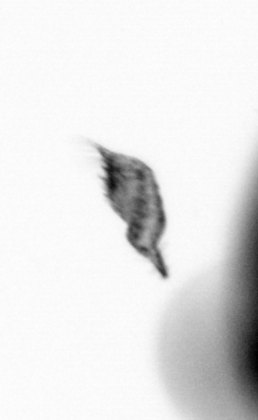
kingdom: Animalia
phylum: Arthropoda
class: Copepoda
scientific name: Copepoda
